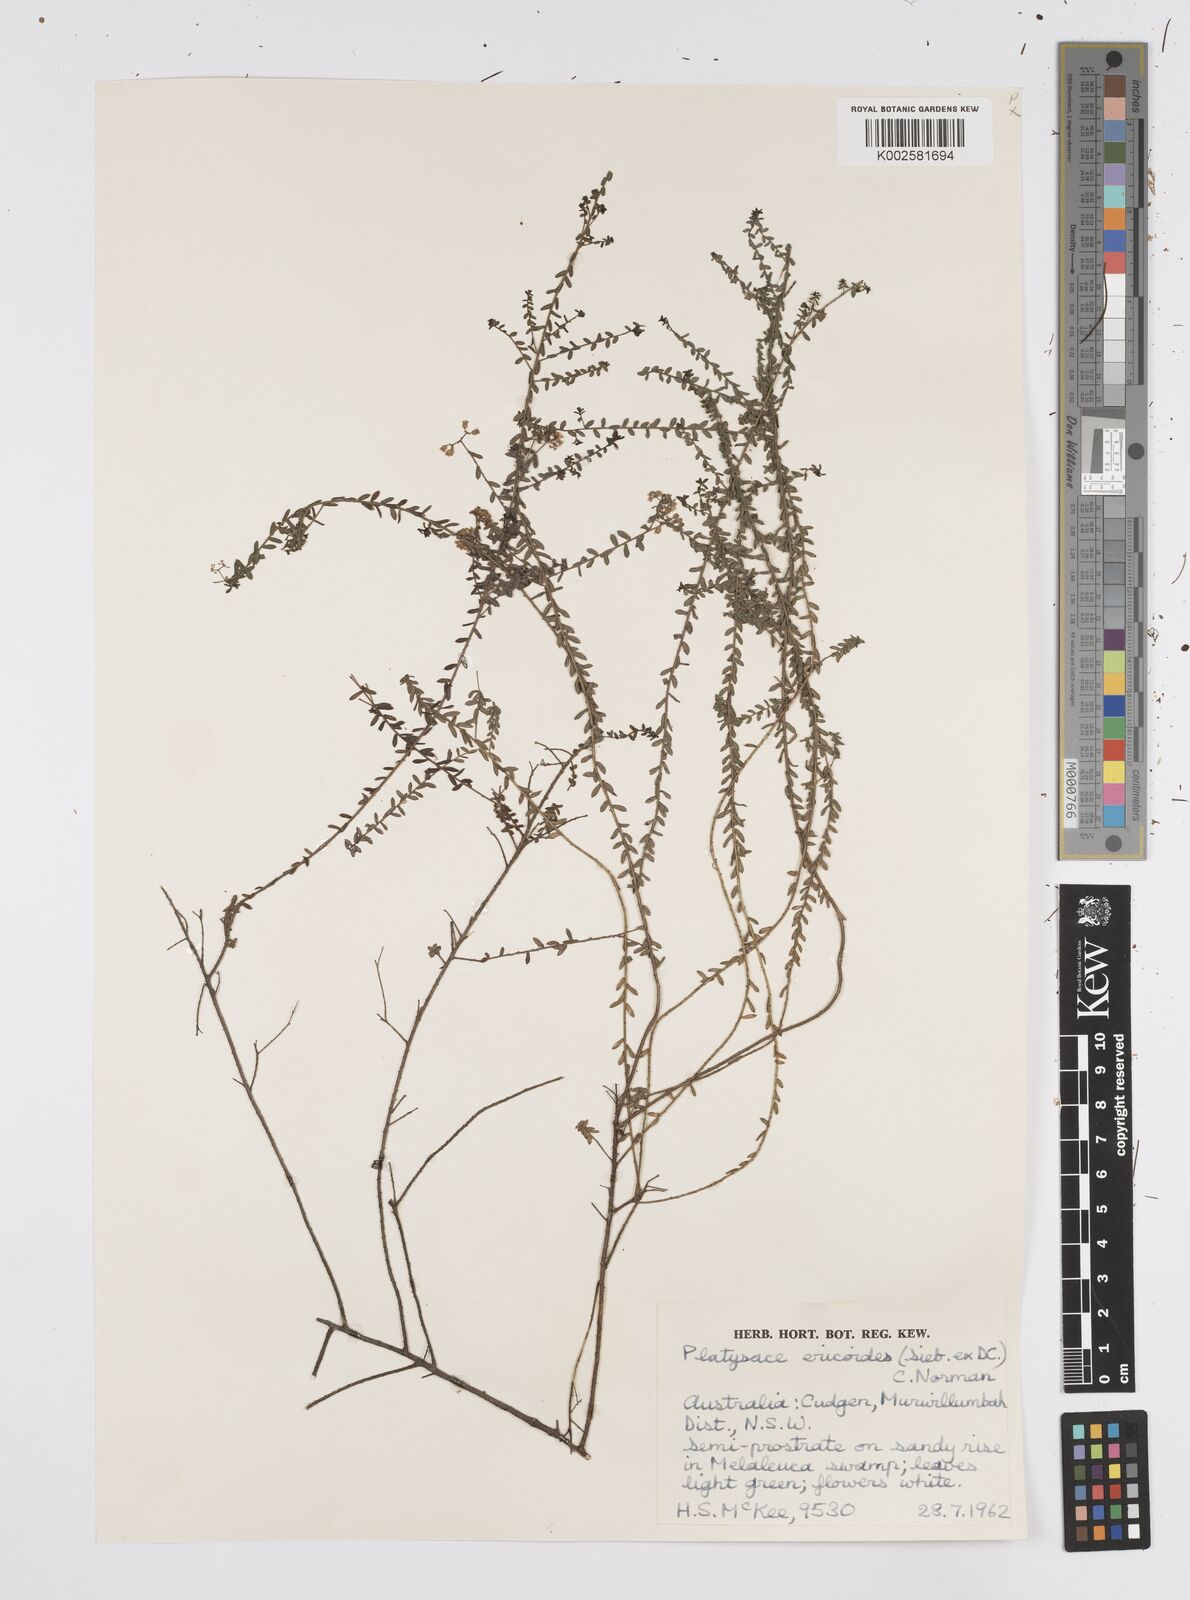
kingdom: Plantae
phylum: Tracheophyta
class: Magnoliopsida
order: Apiales
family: Apiaceae
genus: Platysace
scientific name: Platysace ericoides
